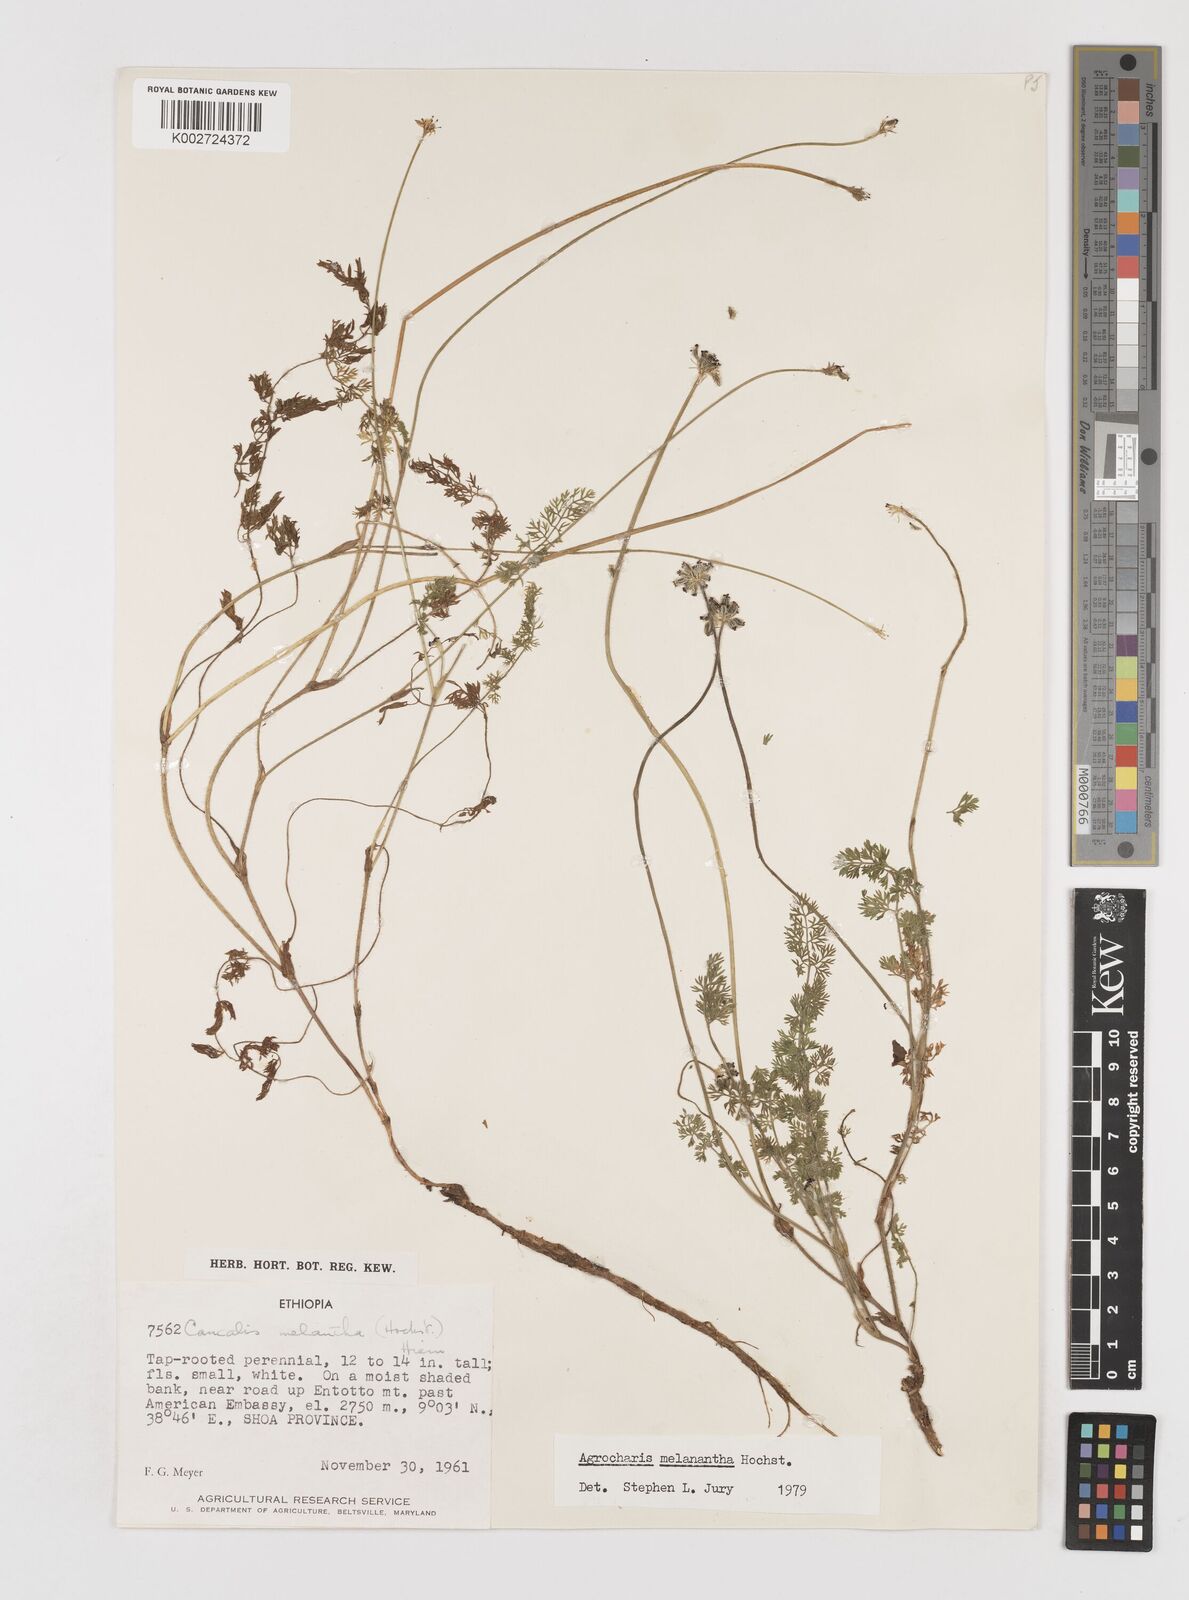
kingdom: Plantae
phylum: Tracheophyta
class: Magnoliopsida
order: Apiales
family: Apiaceae
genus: Daucus
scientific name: Daucus melananthus
